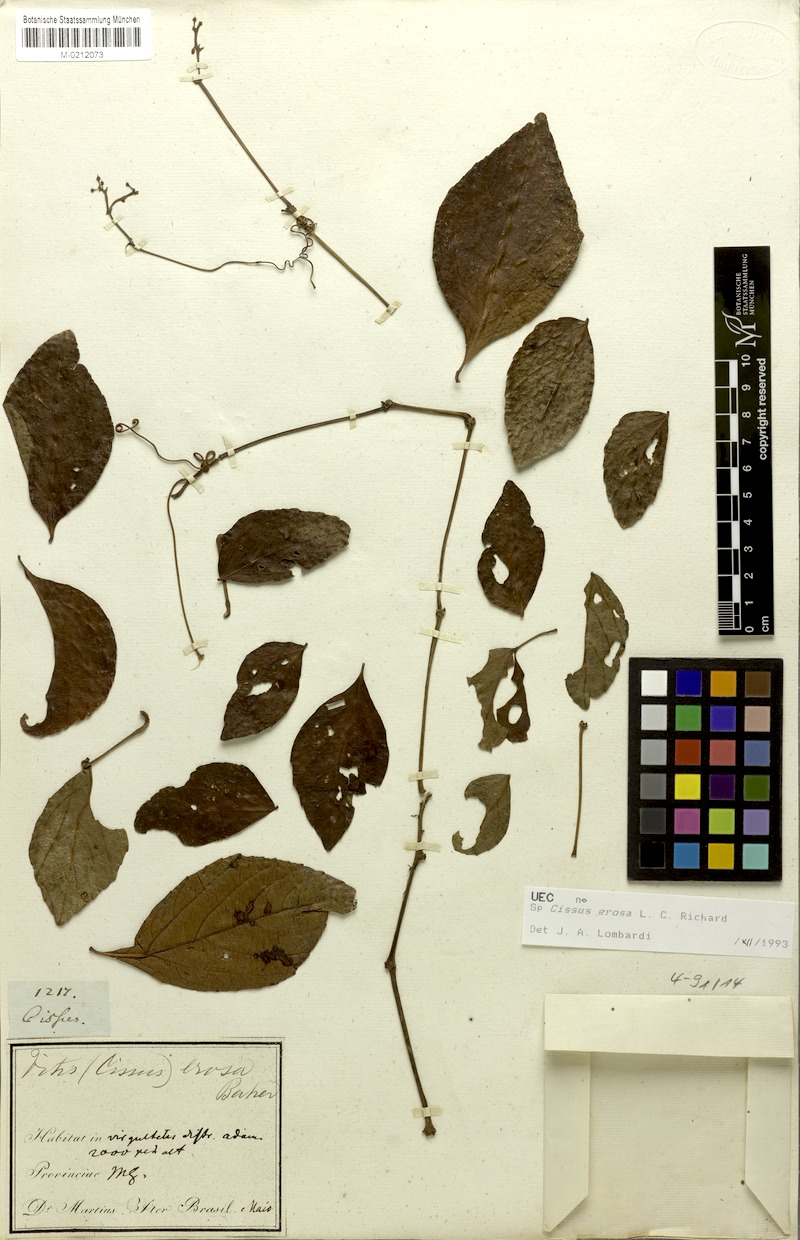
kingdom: Plantae
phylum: Tracheophyta
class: Magnoliopsida
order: Vitales
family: Vitaceae
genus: Cissus
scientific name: Cissus erosa
